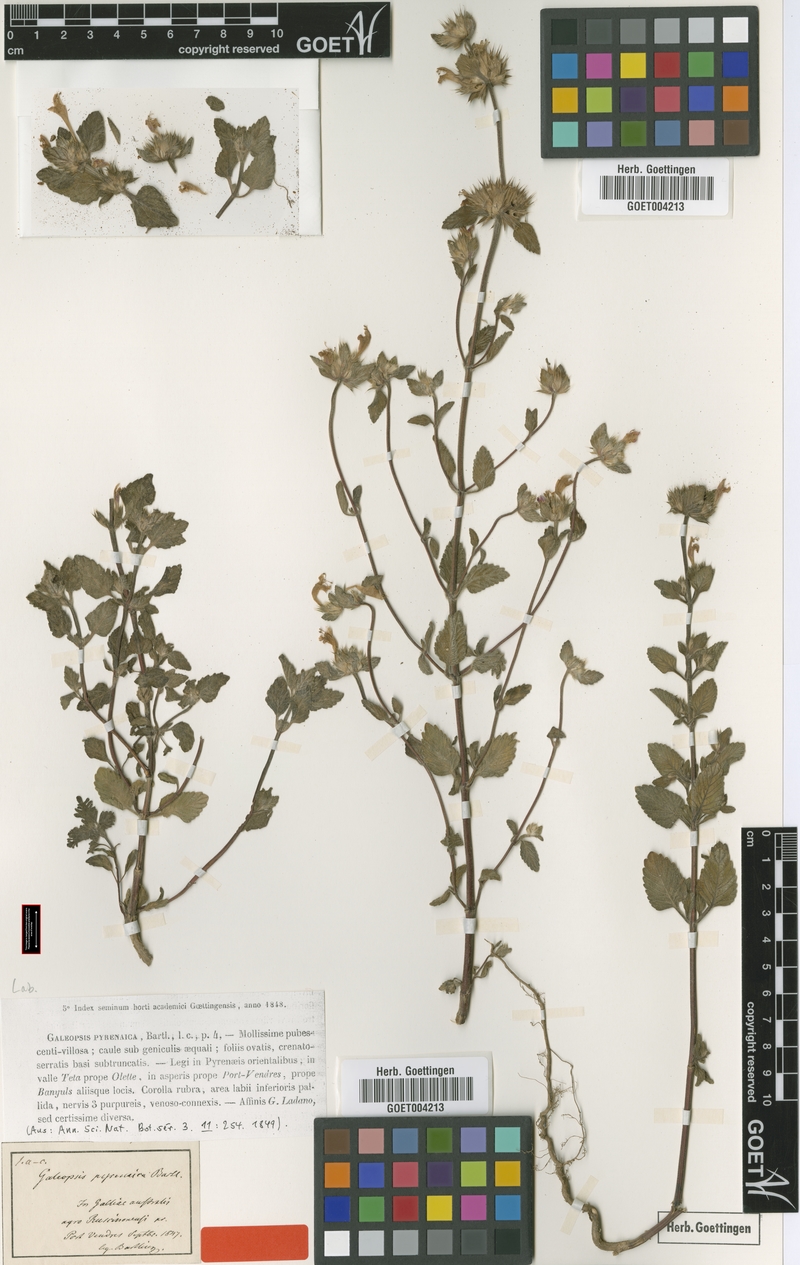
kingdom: Plantae
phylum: Tracheophyta
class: Magnoliopsida
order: Lamiales
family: Lamiaceae
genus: Galeopsis
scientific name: Galeopsis pyrenaica
